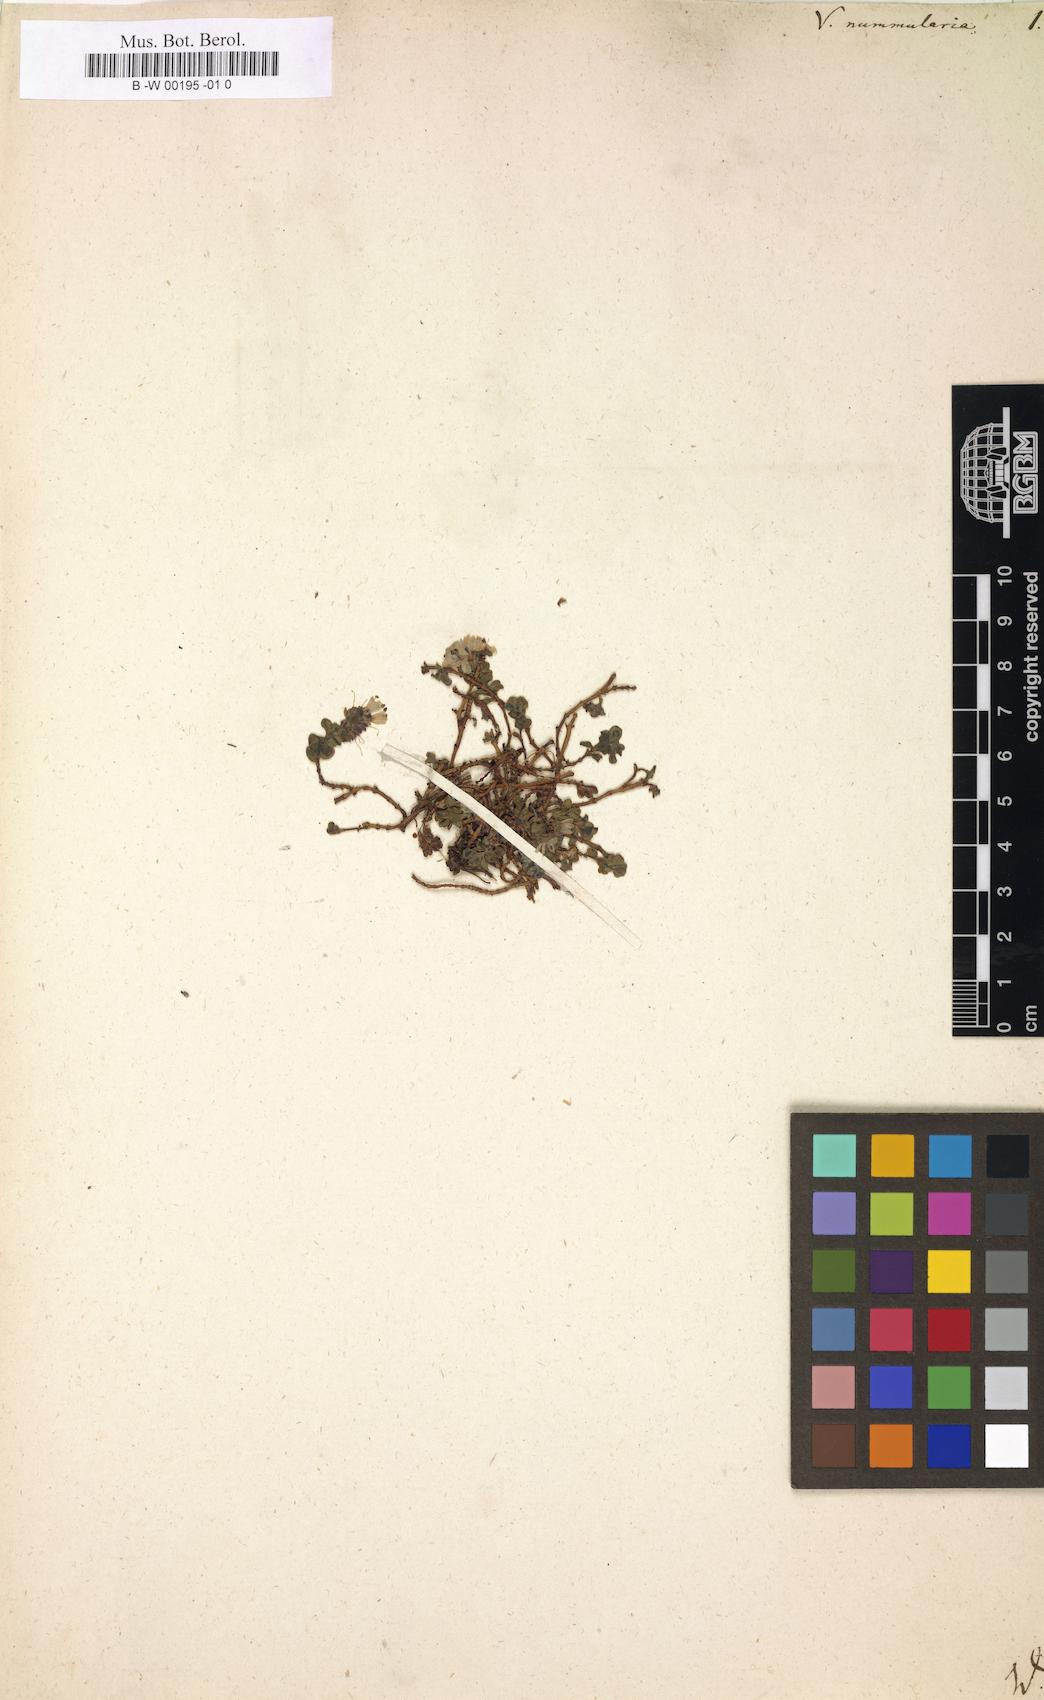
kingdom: Plantae
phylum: Tracheophyta
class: Magnoliopsida
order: Lamiales
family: Plantaginaceae
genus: Veronica
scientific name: Veronica nummularia
